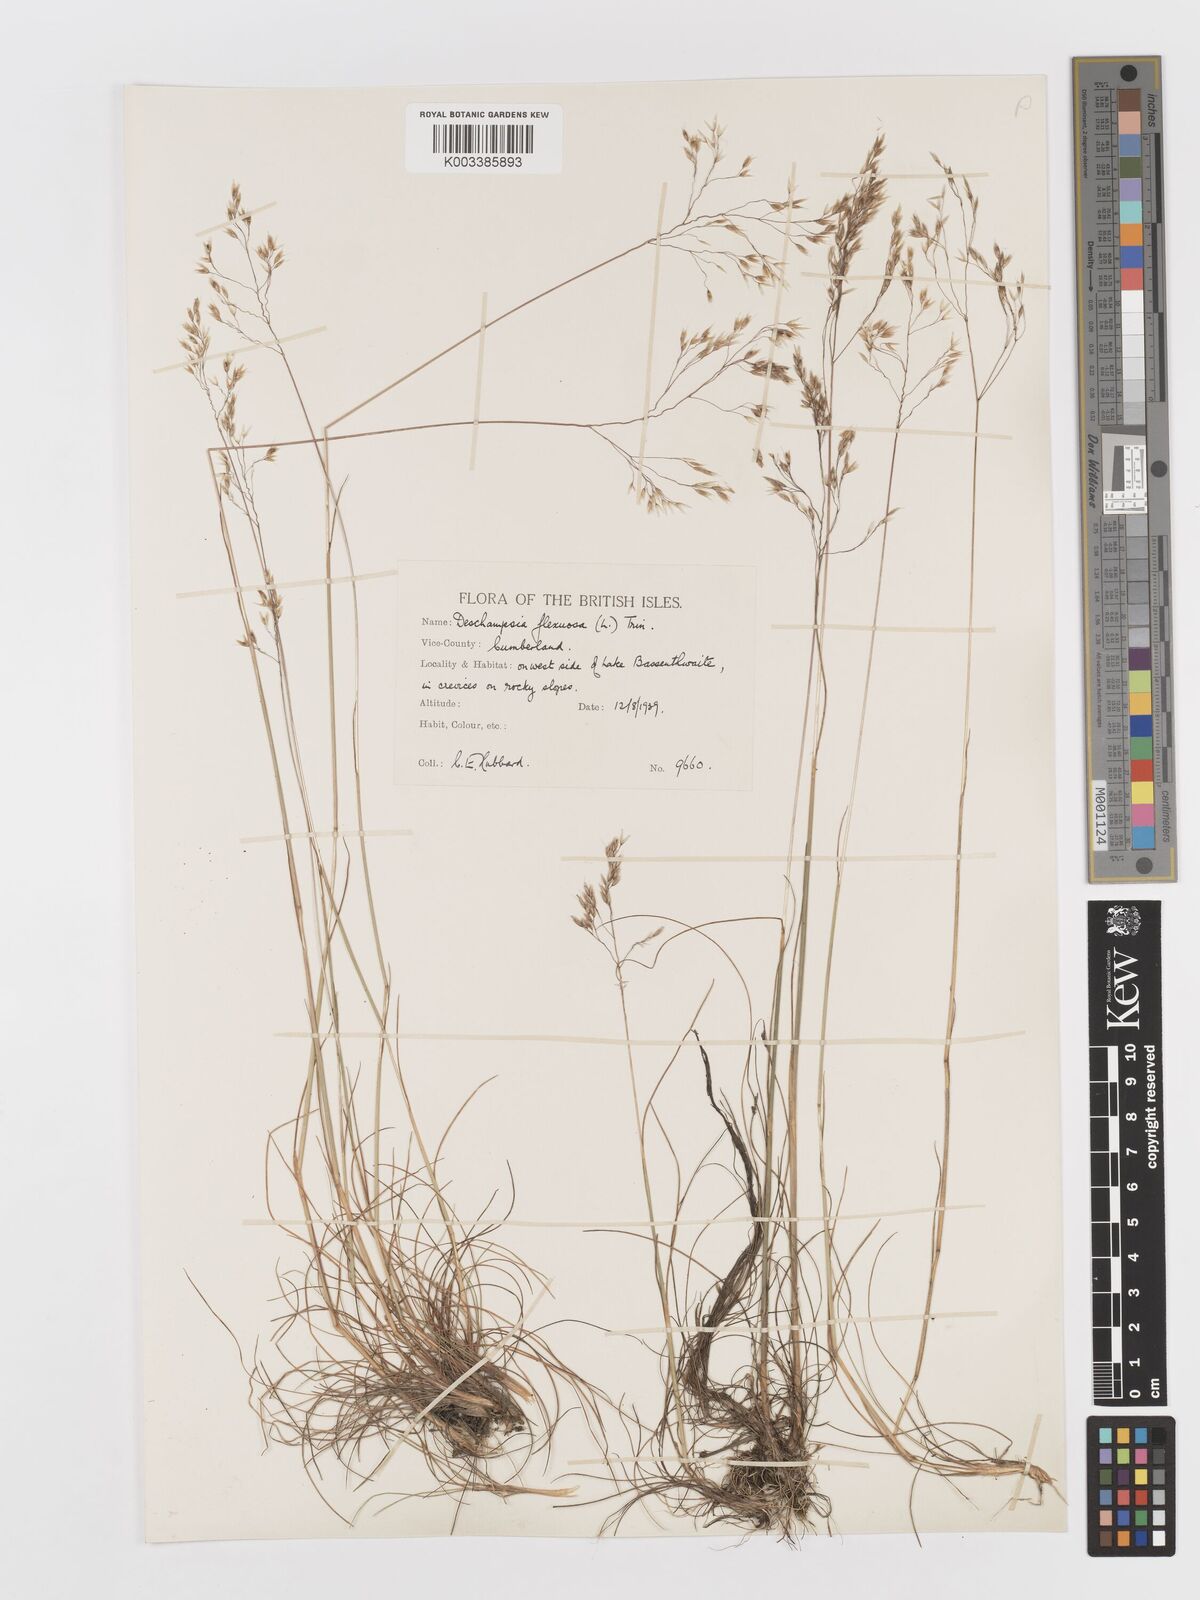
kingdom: Plantae
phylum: Tracheophyta
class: Liliopsida
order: Poales
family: Poaceae
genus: Avenella
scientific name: Avenella flexuosa
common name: Wavy hairgrass
